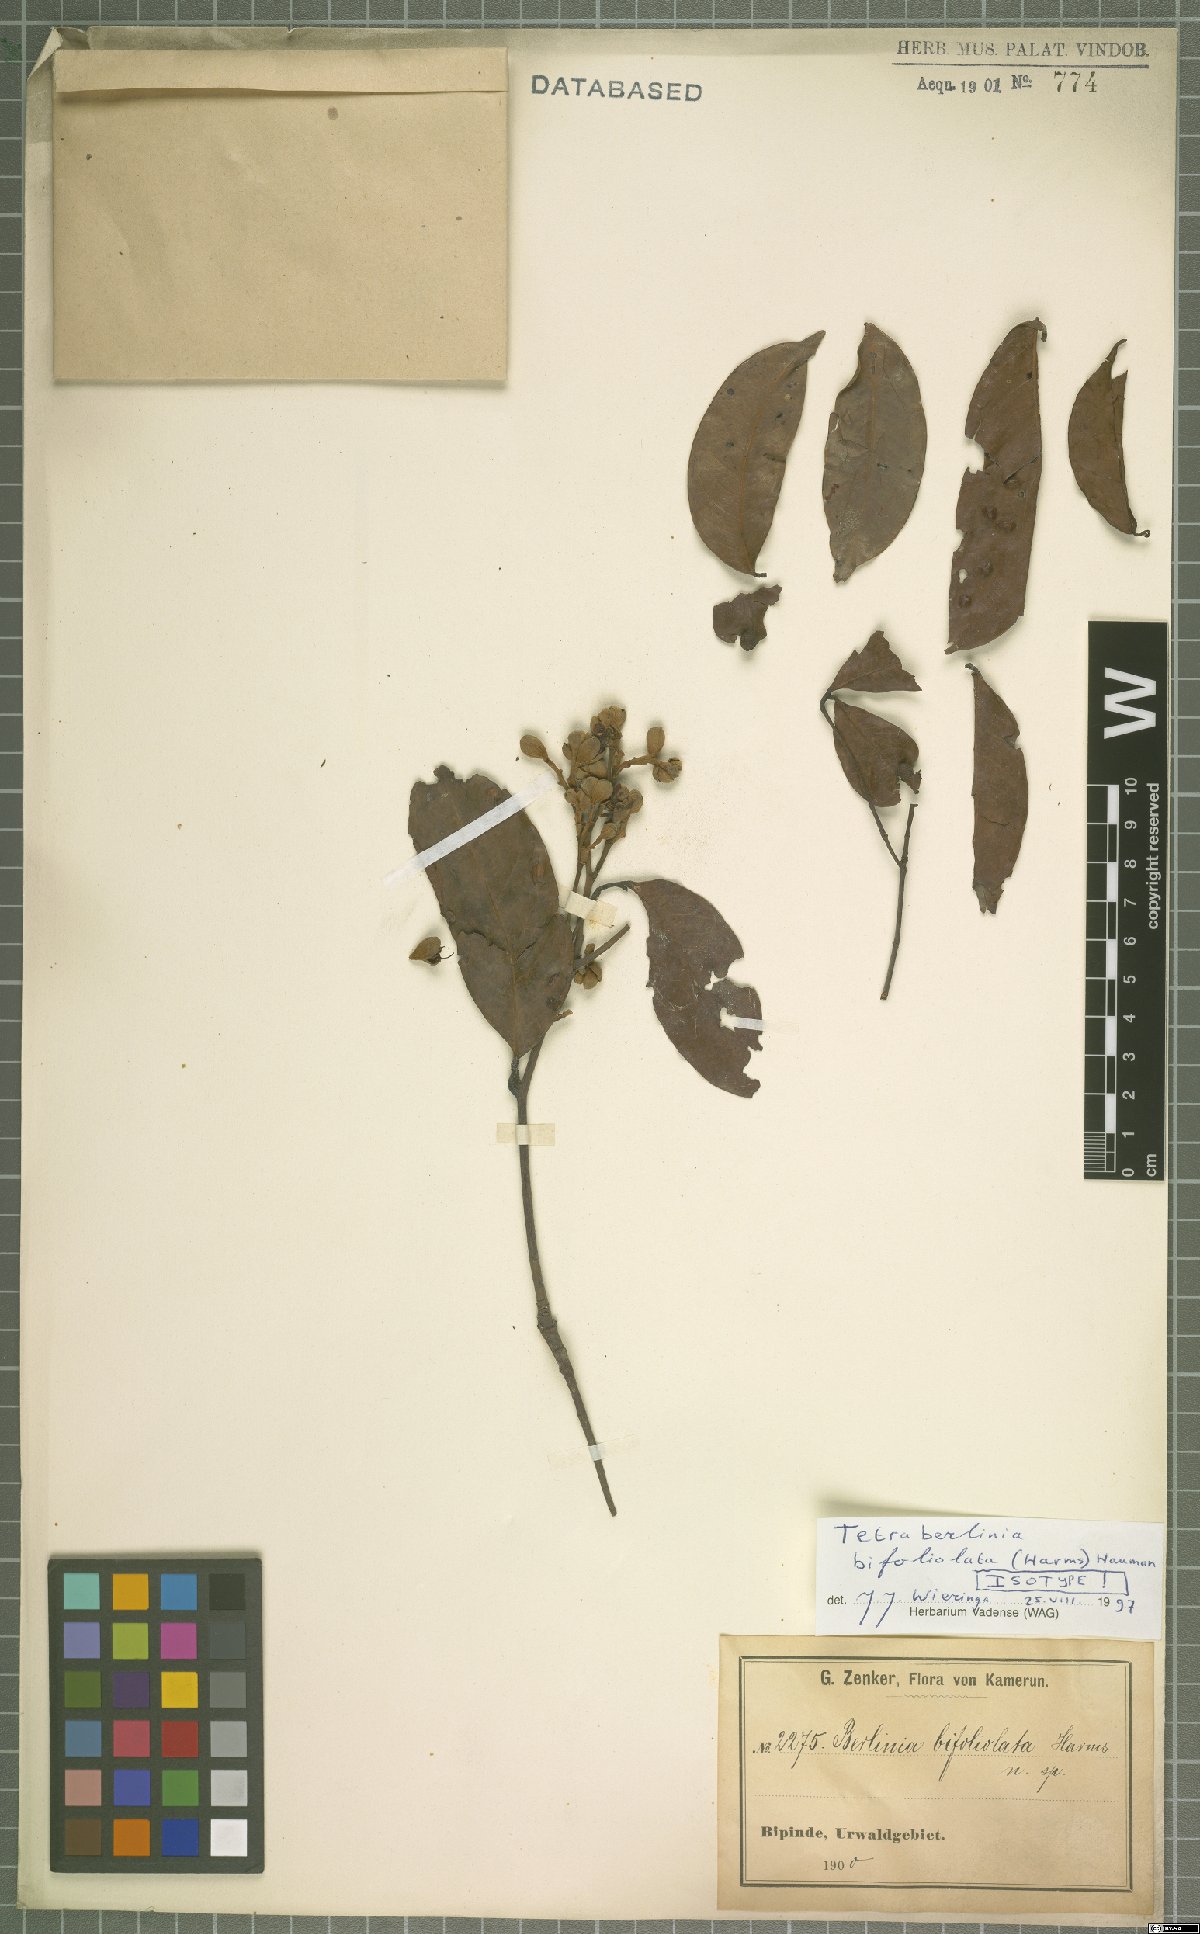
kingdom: Plantae
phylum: Tracheophyta
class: Magnoliopsida
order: Fabales
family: Fabaceae
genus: Tetraberlinia
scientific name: Tetraberlinia bifoliolata
